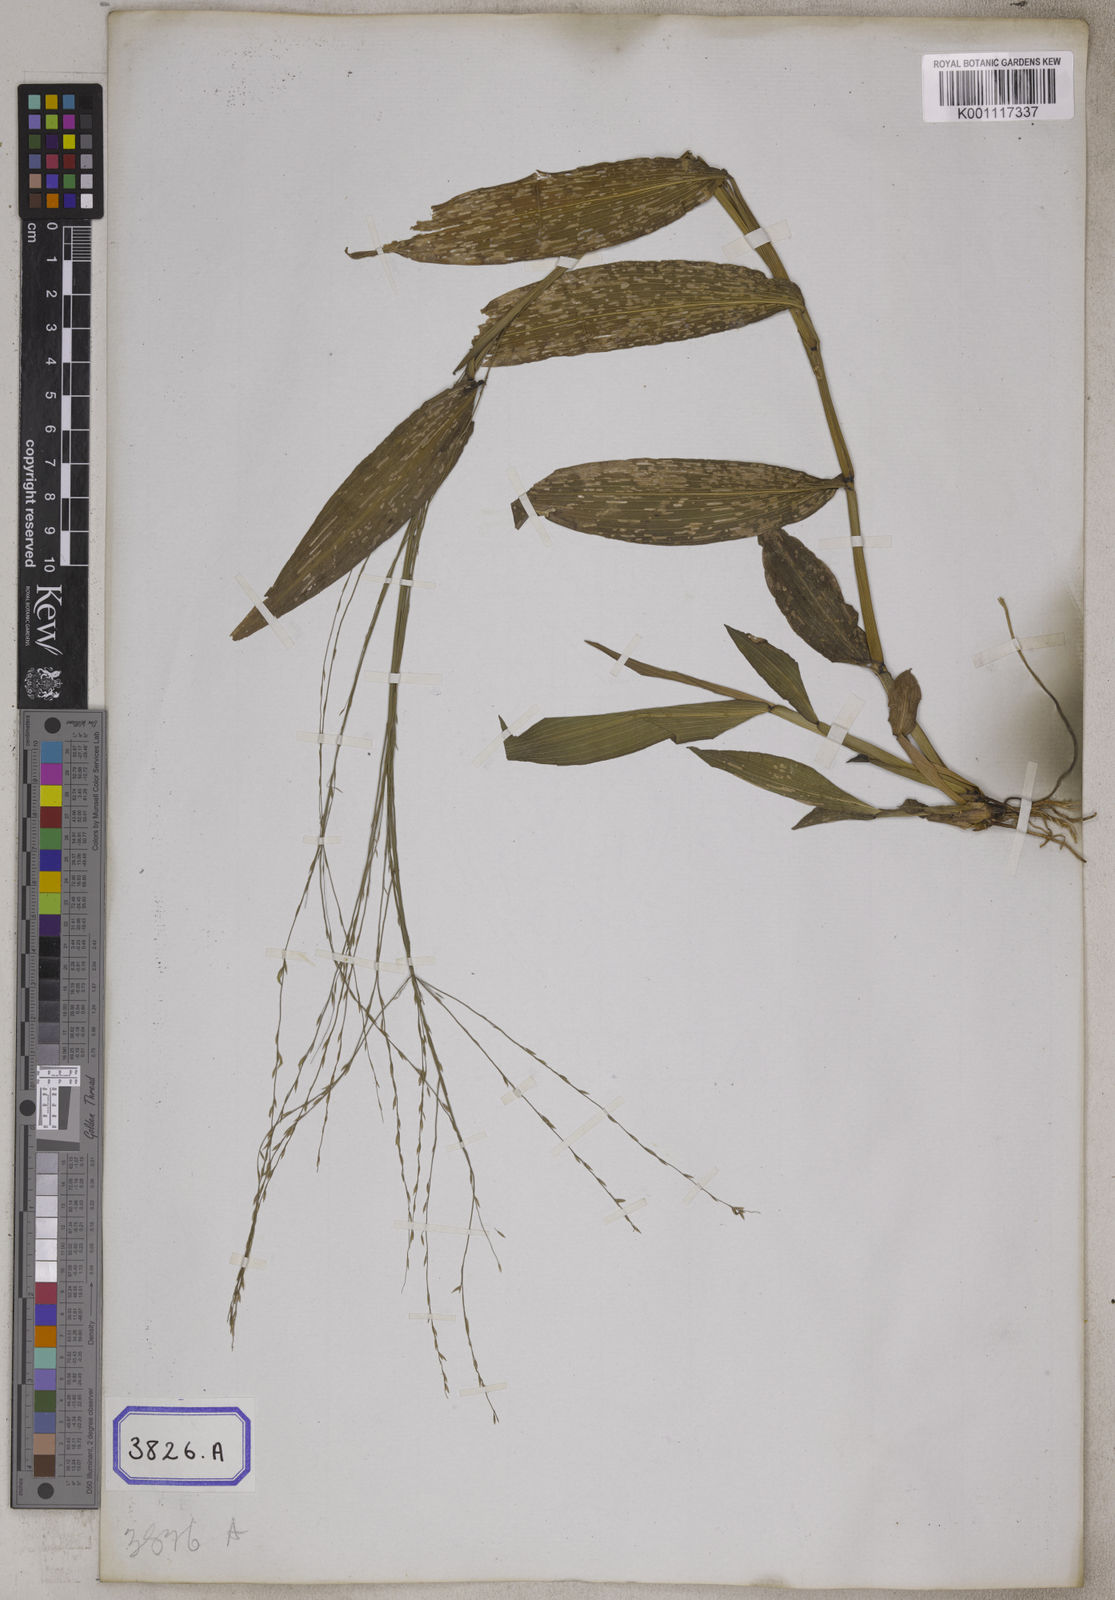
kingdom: Plantae
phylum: Tracheophyta
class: Liliopsida
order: Poales
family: Poaceae
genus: Centotheca
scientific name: Centotheca lappacea
